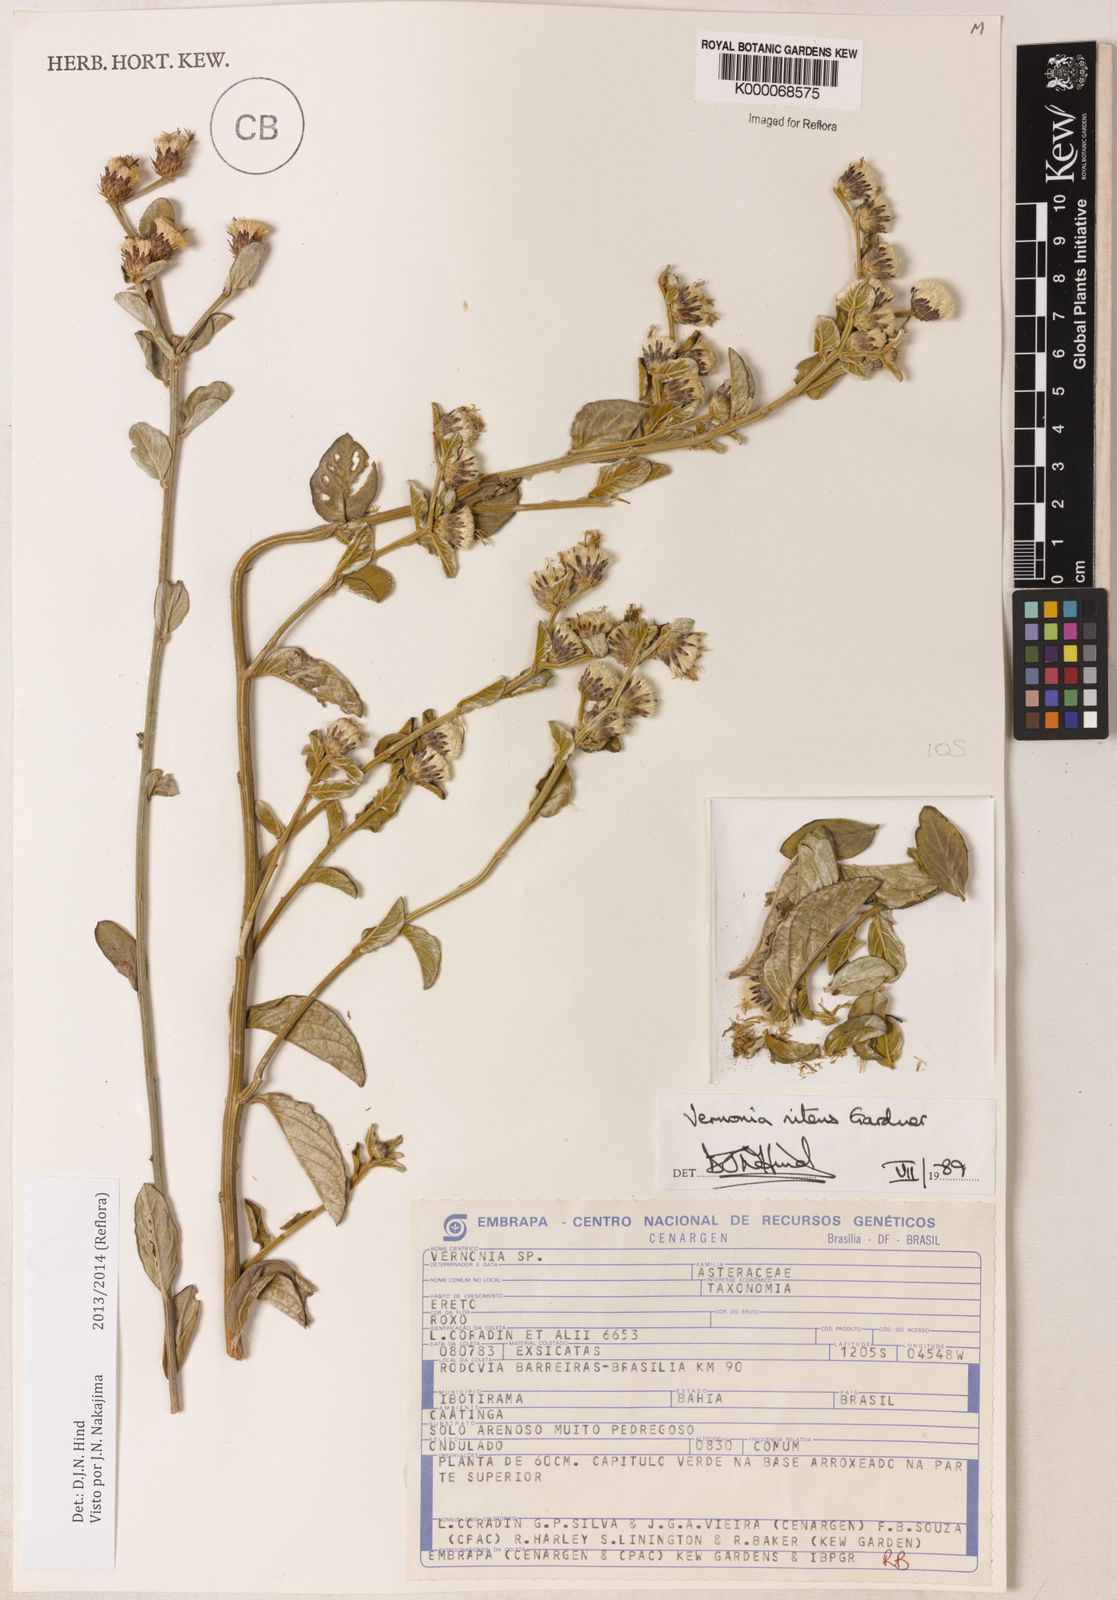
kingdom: Plantae
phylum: Tracheophyta
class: Magnoliopsida
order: Asterales
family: Asteraceae
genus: Lepidaploa
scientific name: Lepidaploa nitens
